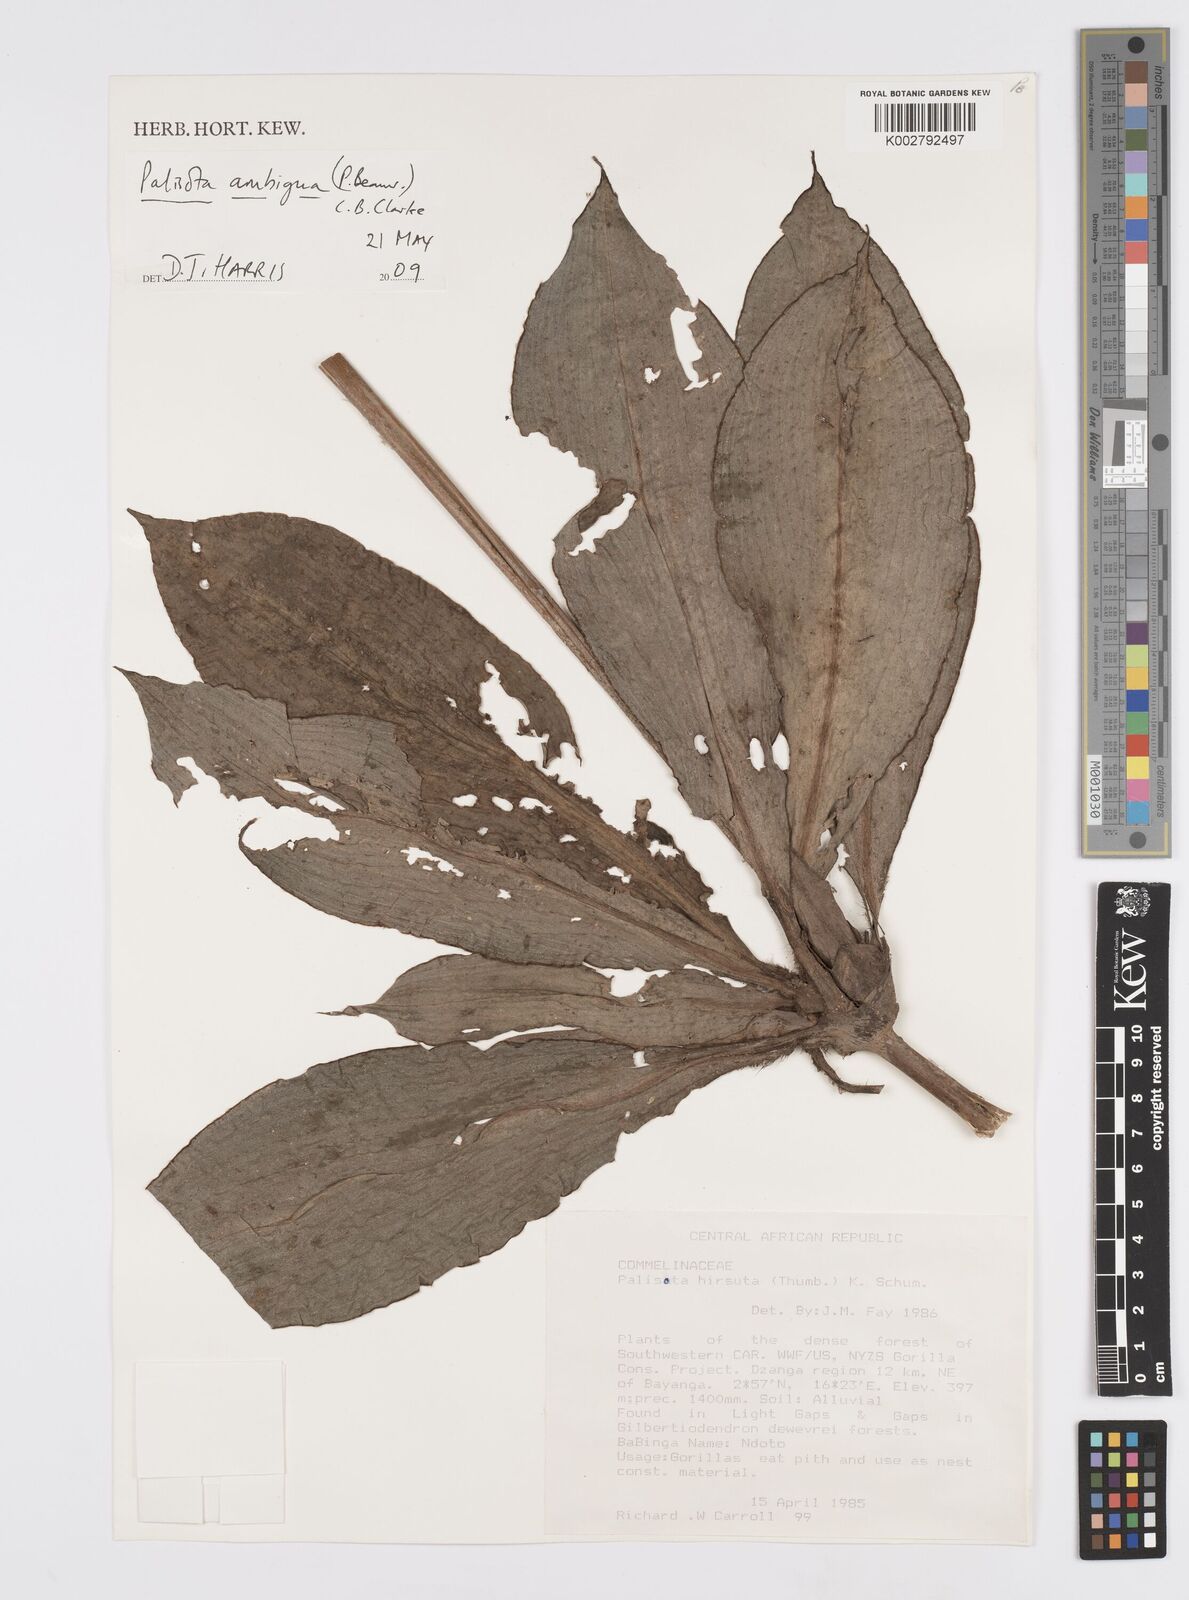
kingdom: Plantae
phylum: Tracheophyta
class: Liliopsida
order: Commelinales
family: Commelinaceae
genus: Palisota
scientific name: Palisota ambigua
